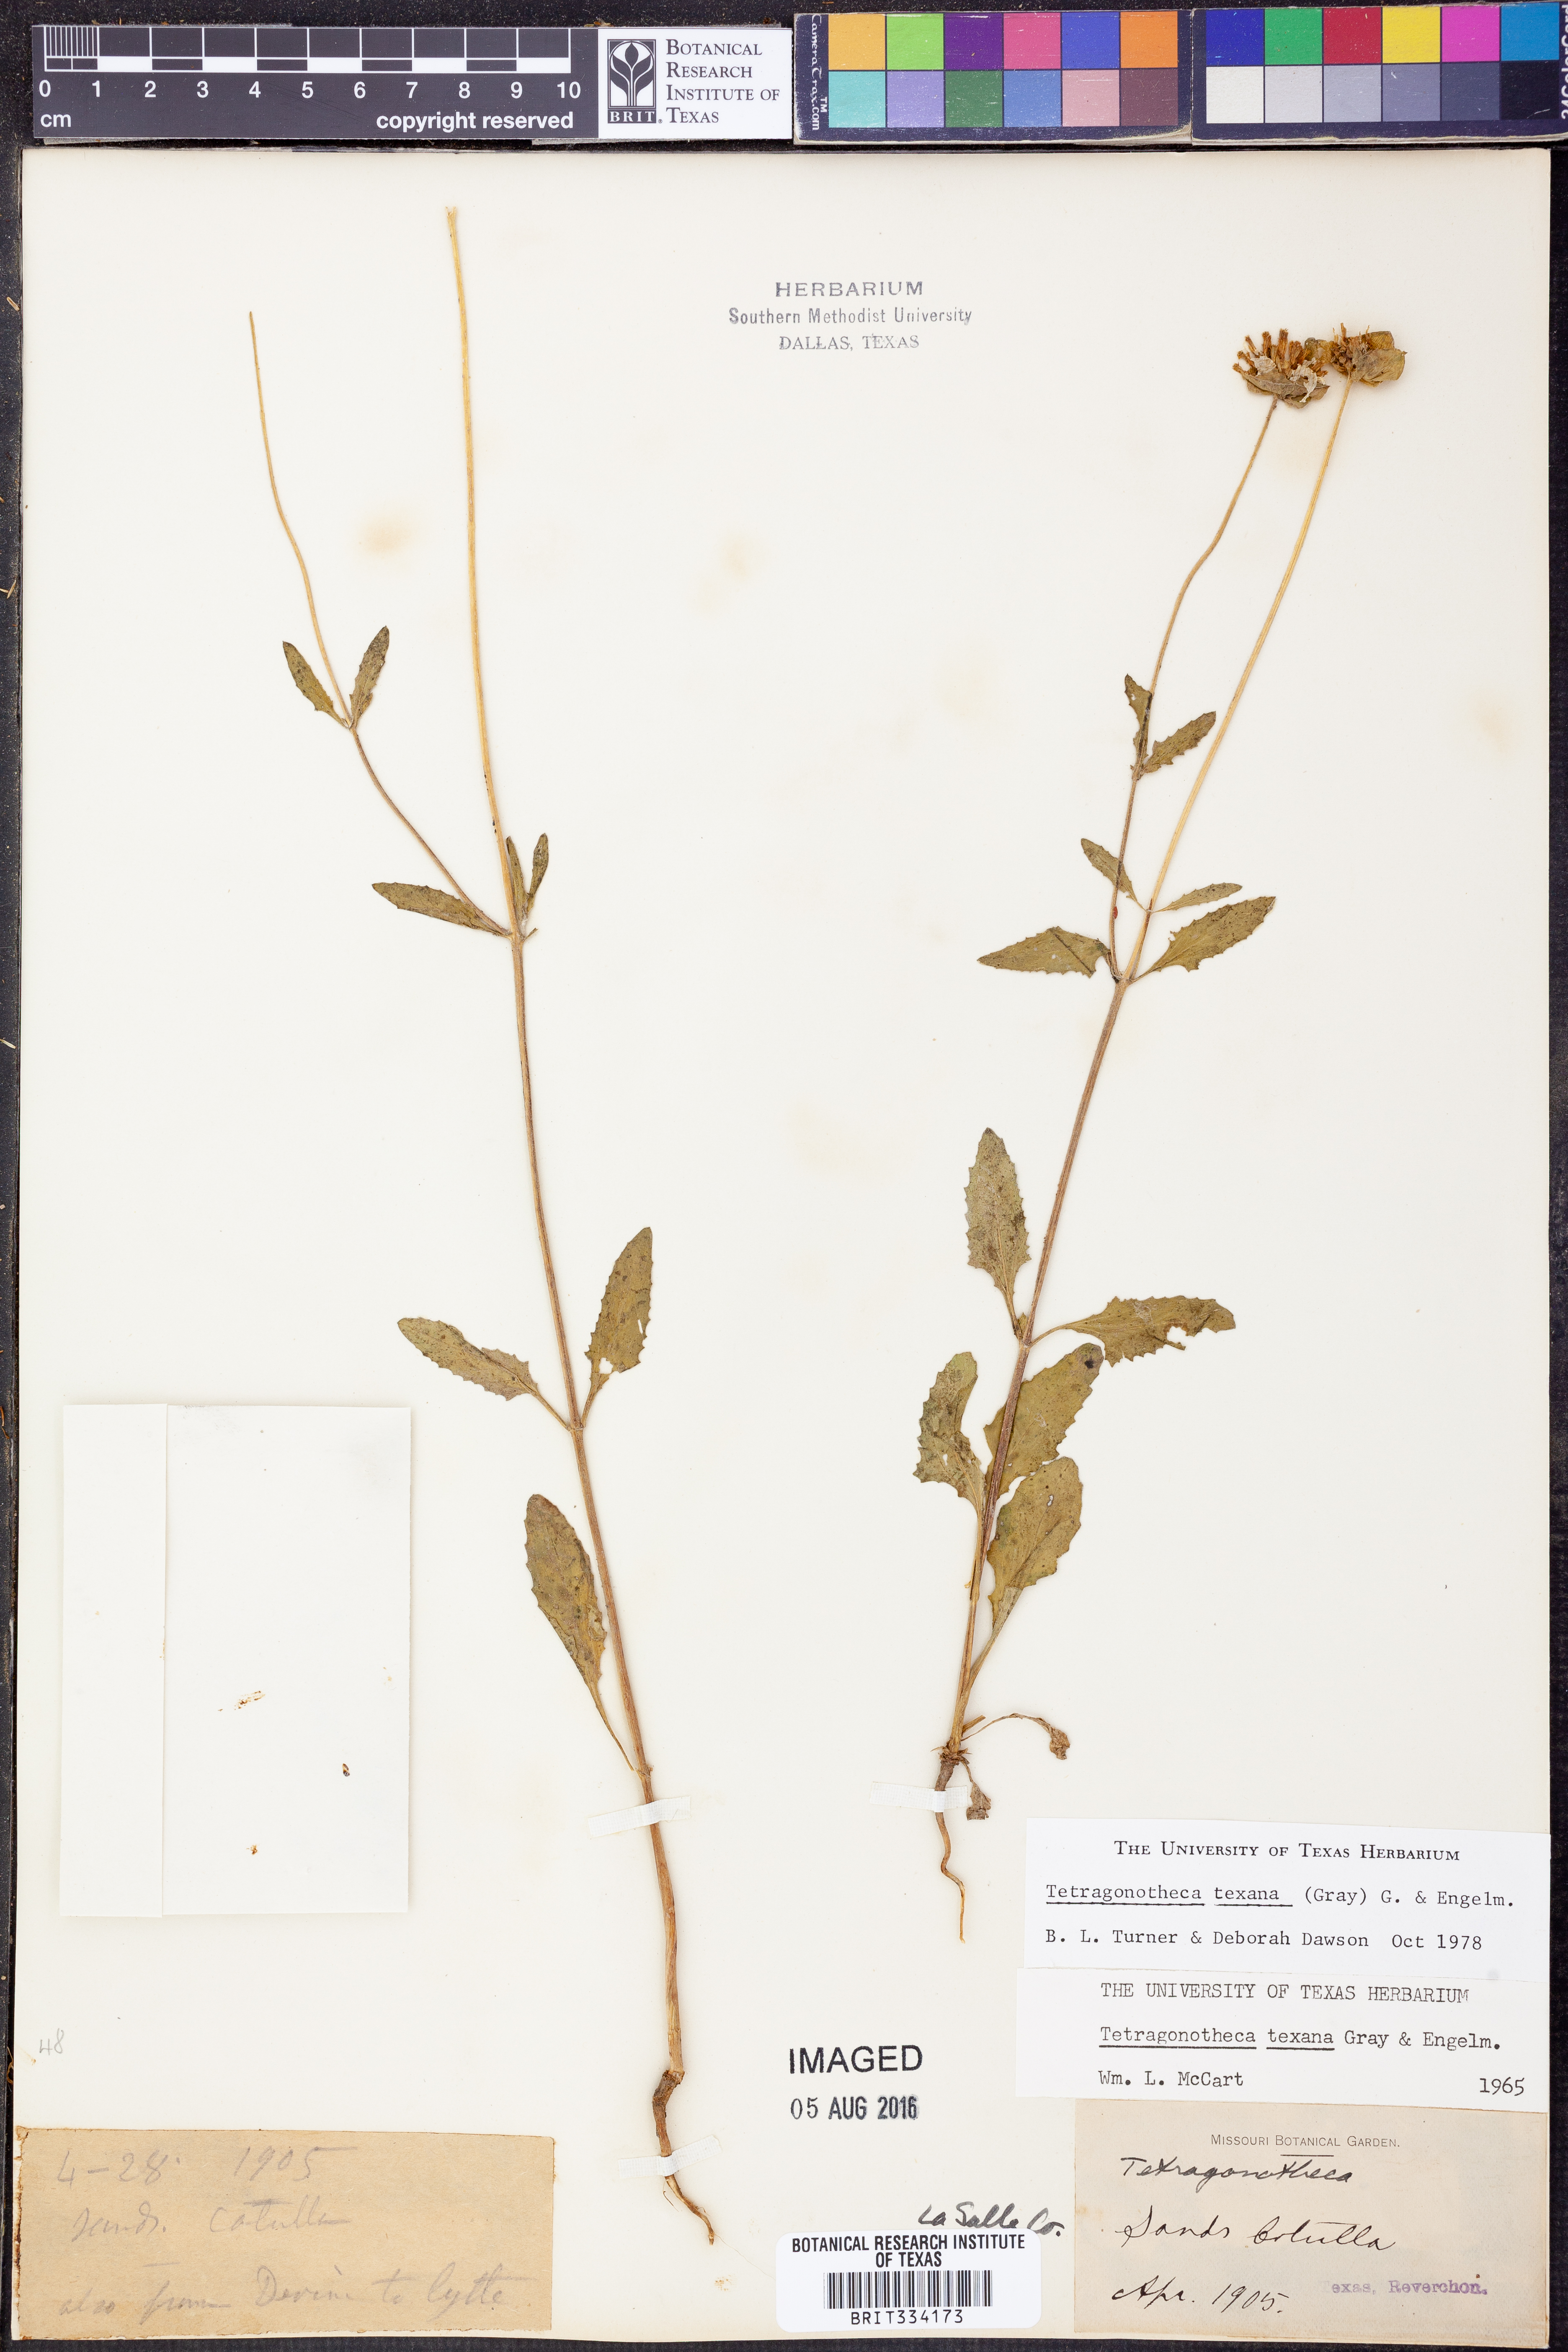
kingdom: Plantae
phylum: Tracheophyta
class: Magnoliopsida
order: Asterales
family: Asteraceae
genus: Tetragonotheca
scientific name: Tetragonotheca
